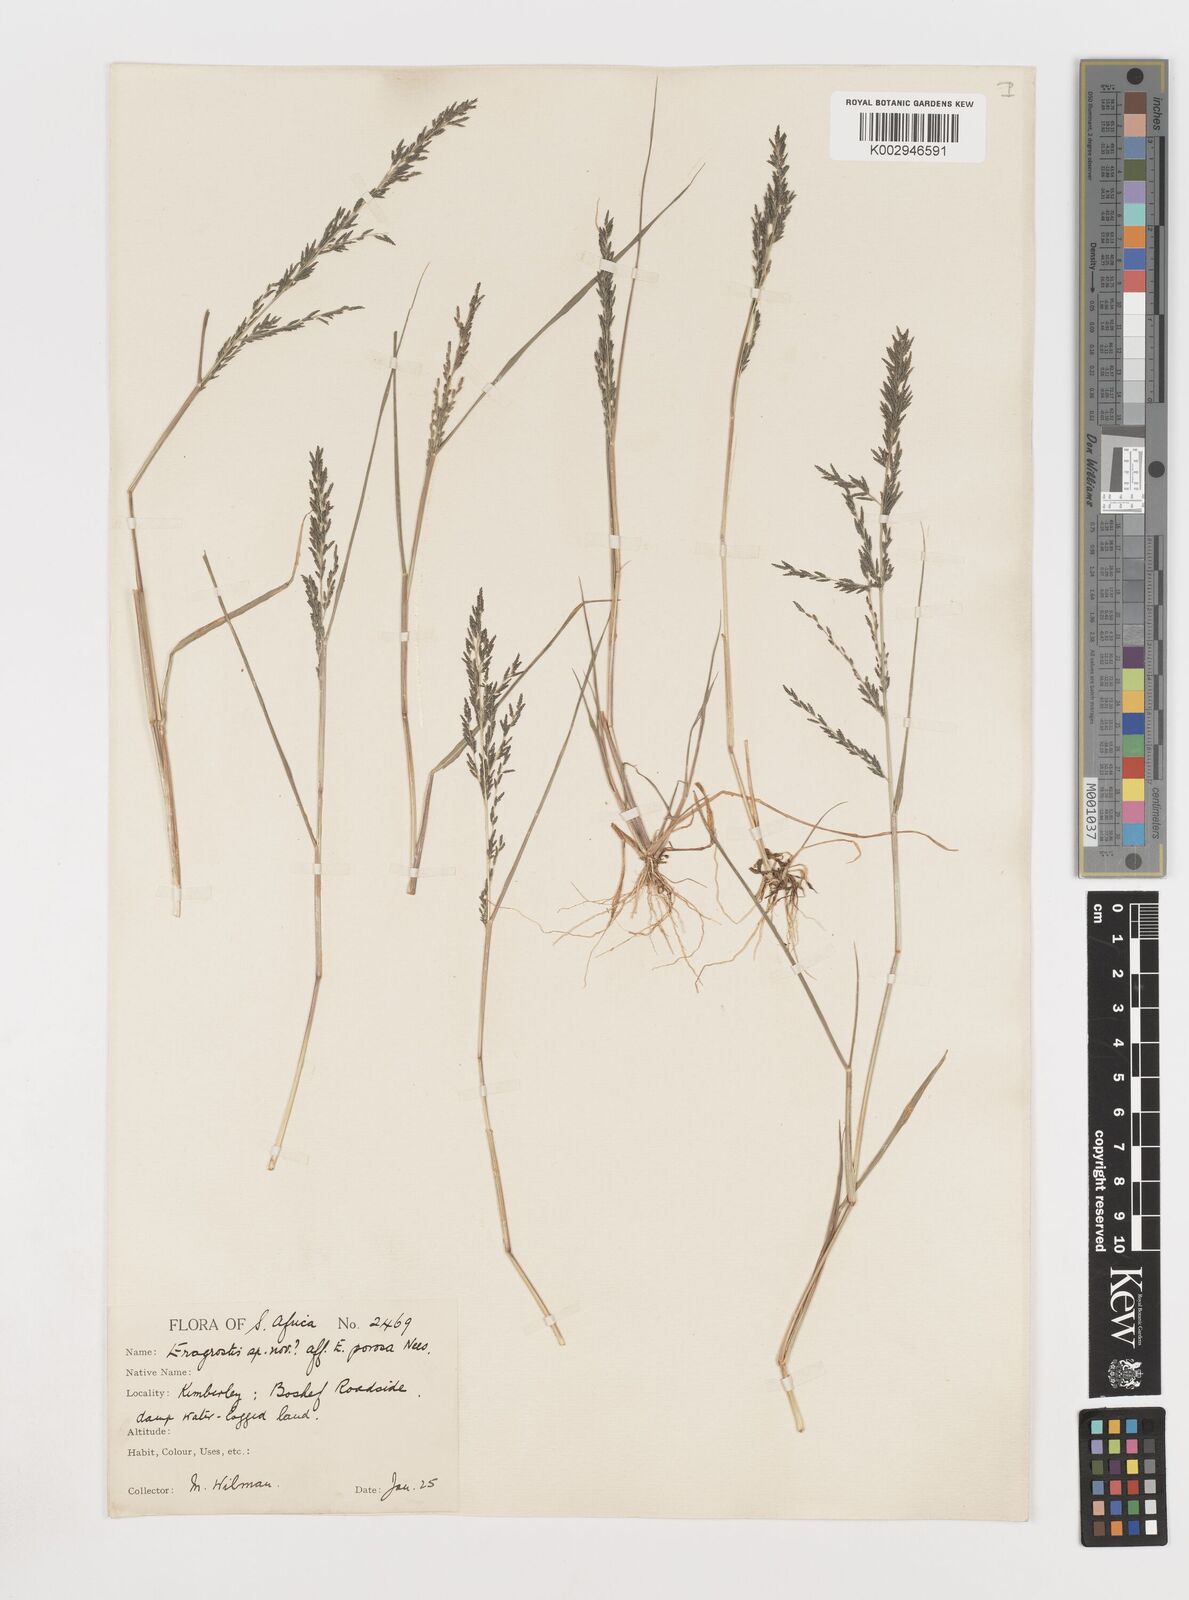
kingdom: Plantae
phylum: Tracheophyta
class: Liliopsida
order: Poales
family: Poaceae
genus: Eragrostis
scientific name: Eragrostis homomalla
